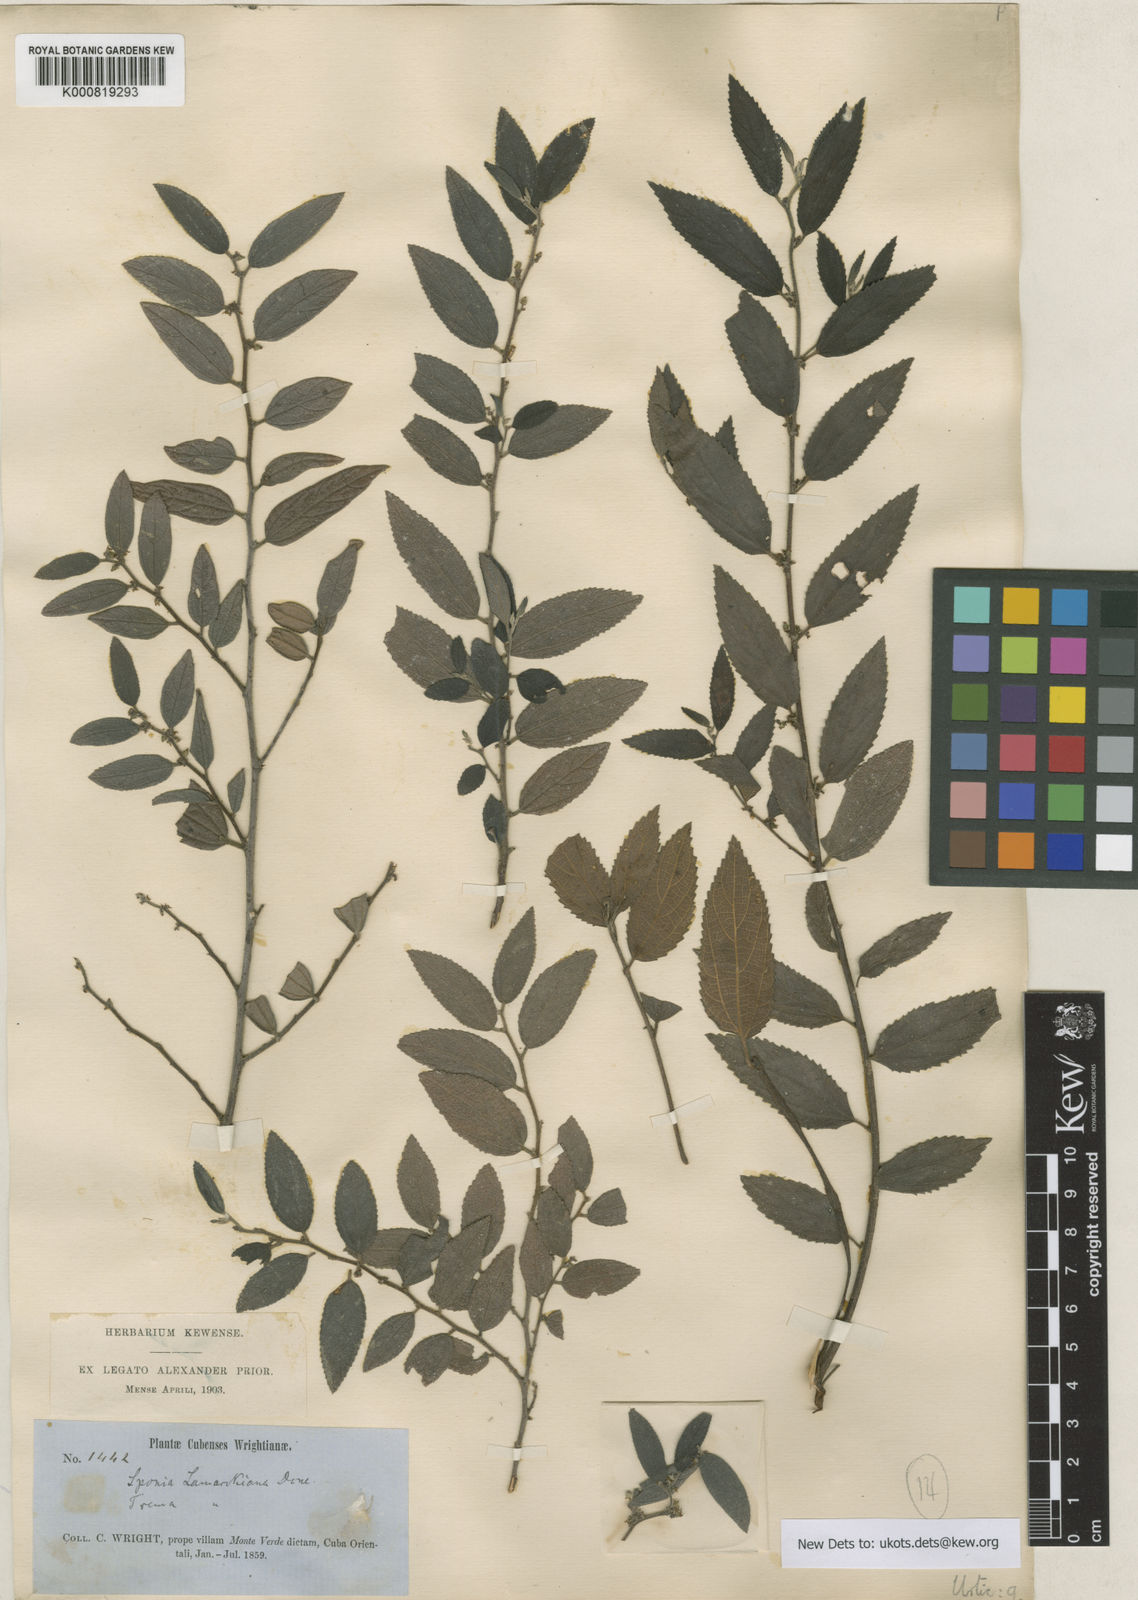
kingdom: Plantae
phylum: Tracheophyta
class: Magnoliopsida
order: Rosales
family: Cannabaceae
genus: Trema
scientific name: Trema lamarckianum
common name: Lamarck's trema
